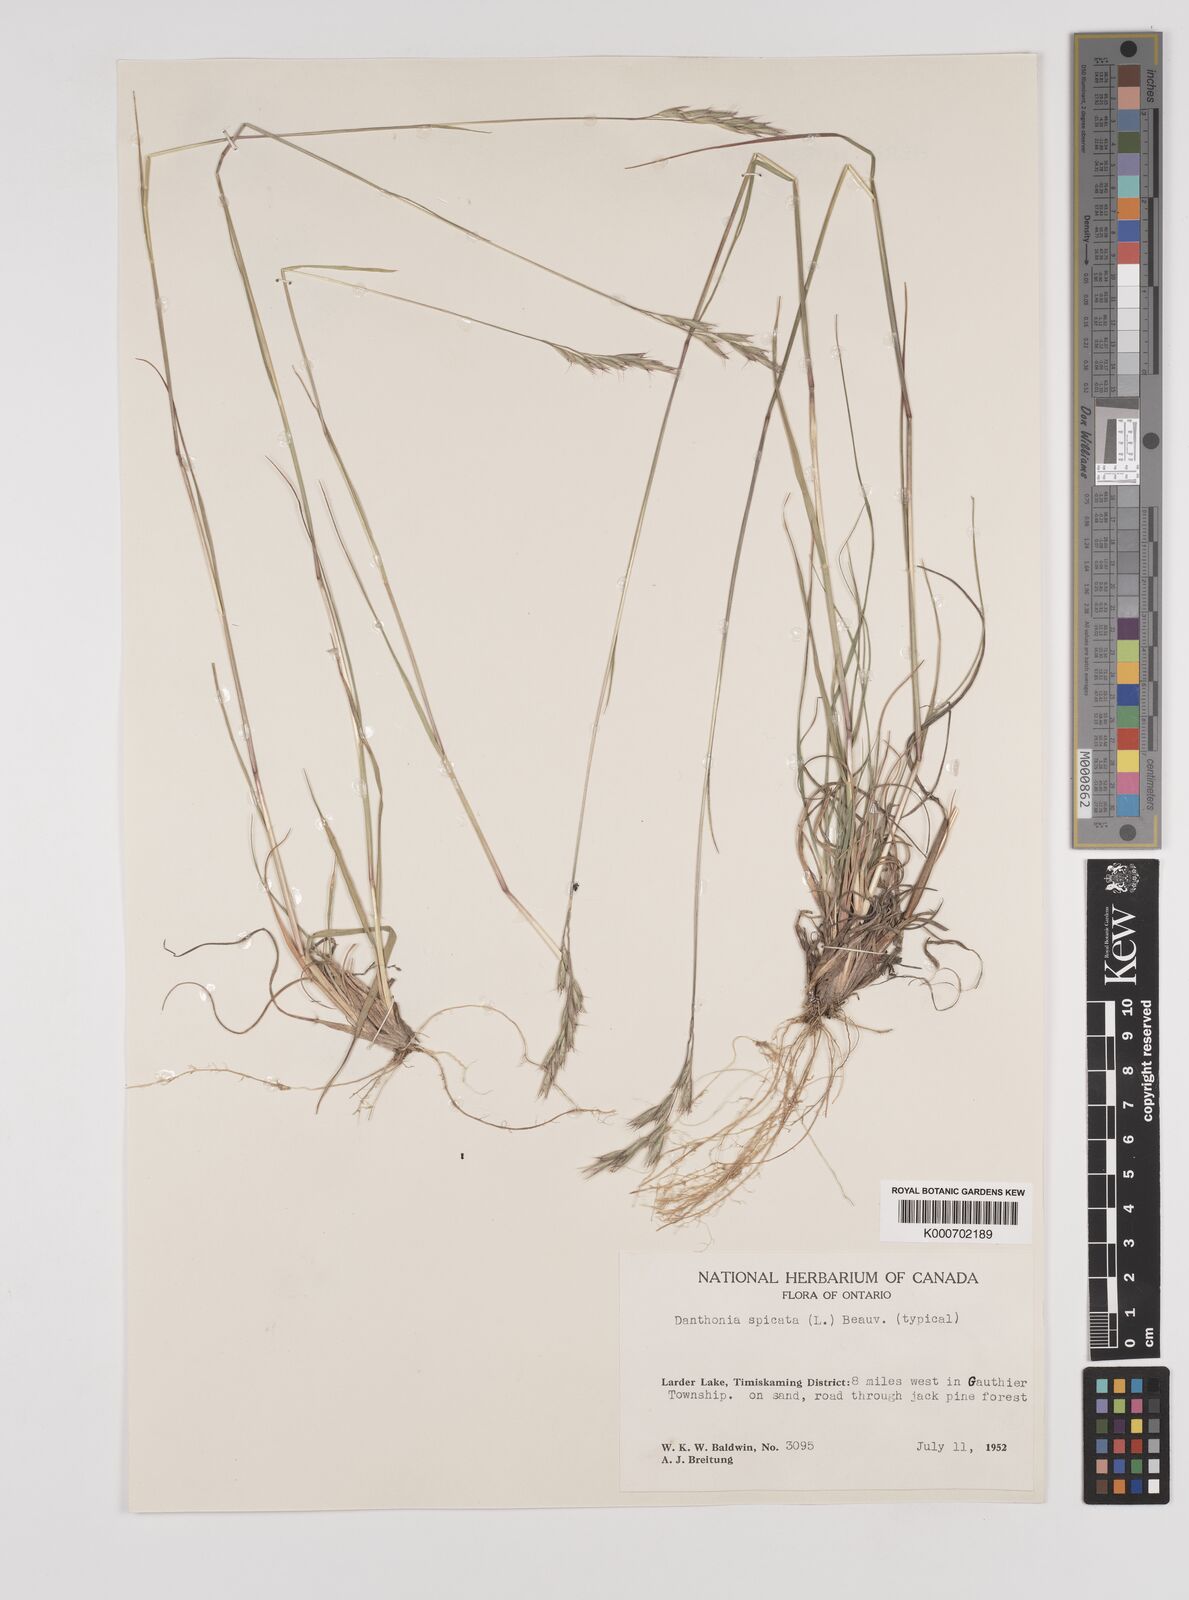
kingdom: Plantae
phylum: Tracheophyta
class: Liliopsida
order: Poales
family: Poaceae
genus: Danthonia
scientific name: Danthonia spicata
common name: Common wild oatgrass
